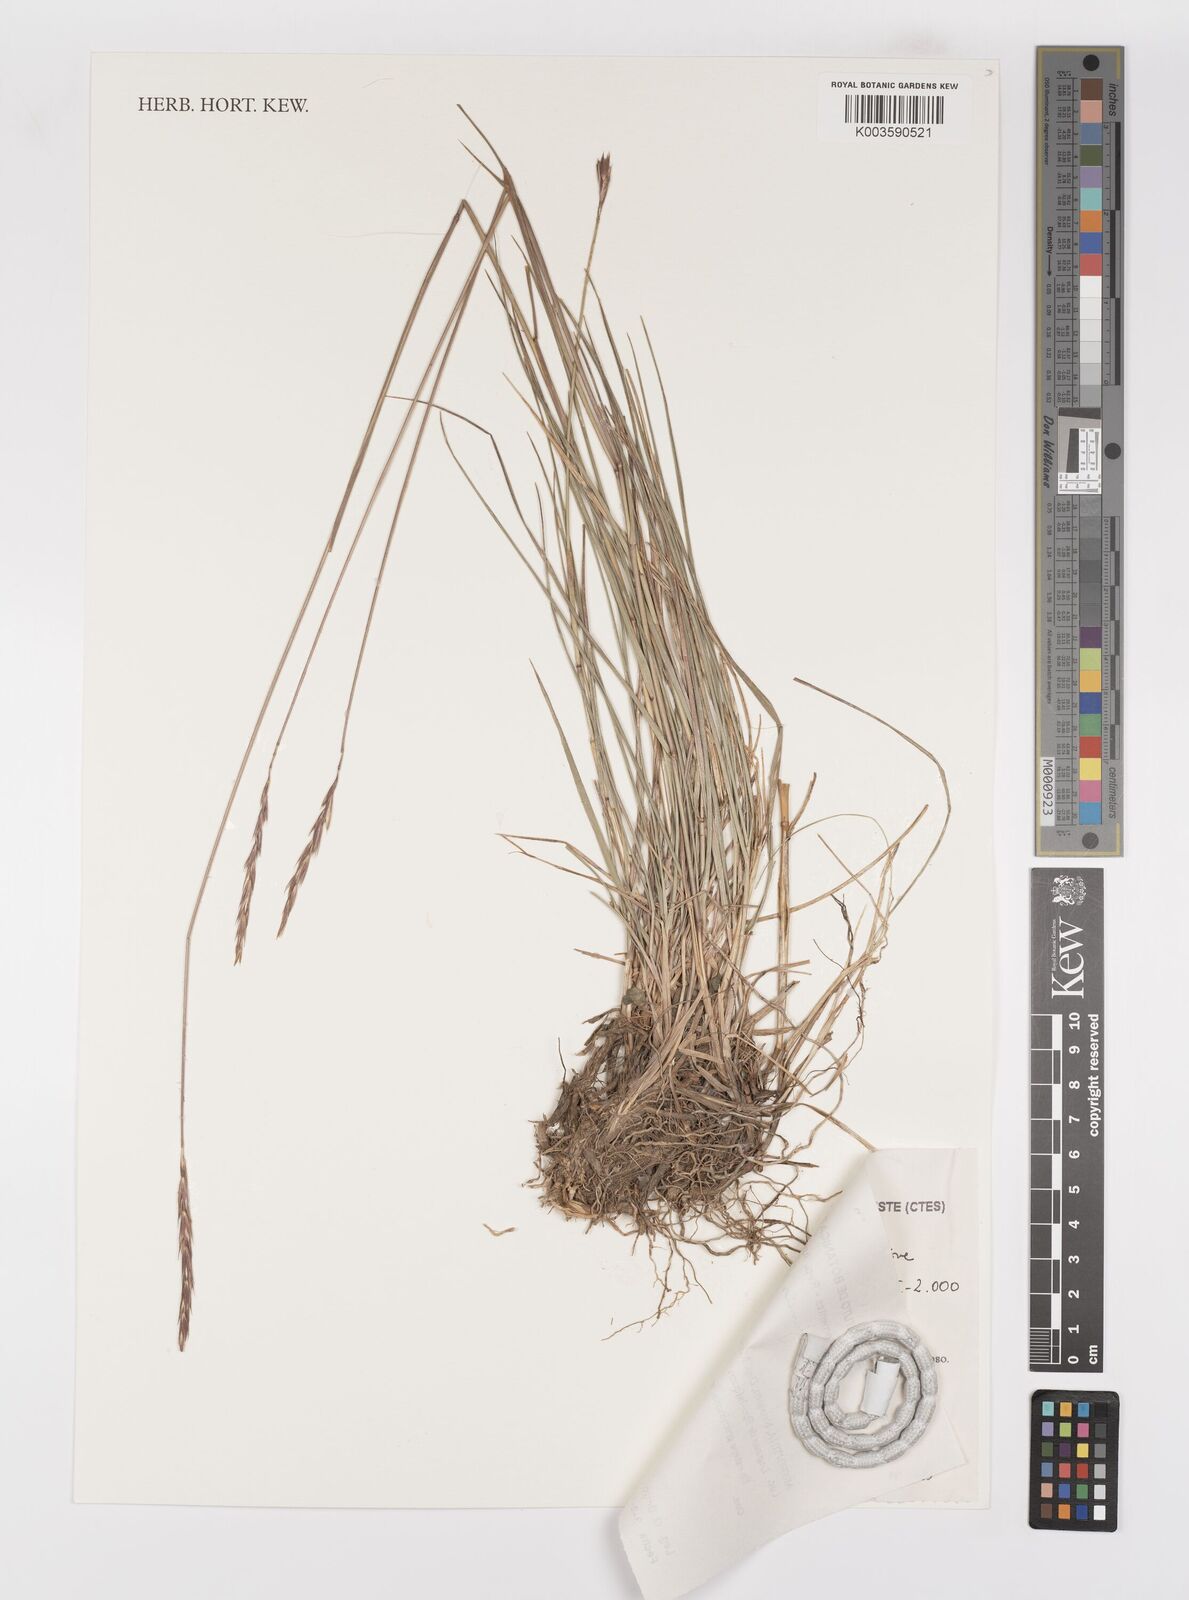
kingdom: Plantae
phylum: Tracheophyta
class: Liliopsida
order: Poales
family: Poaceae
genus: Elymus
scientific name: Elymus scabriglumis
